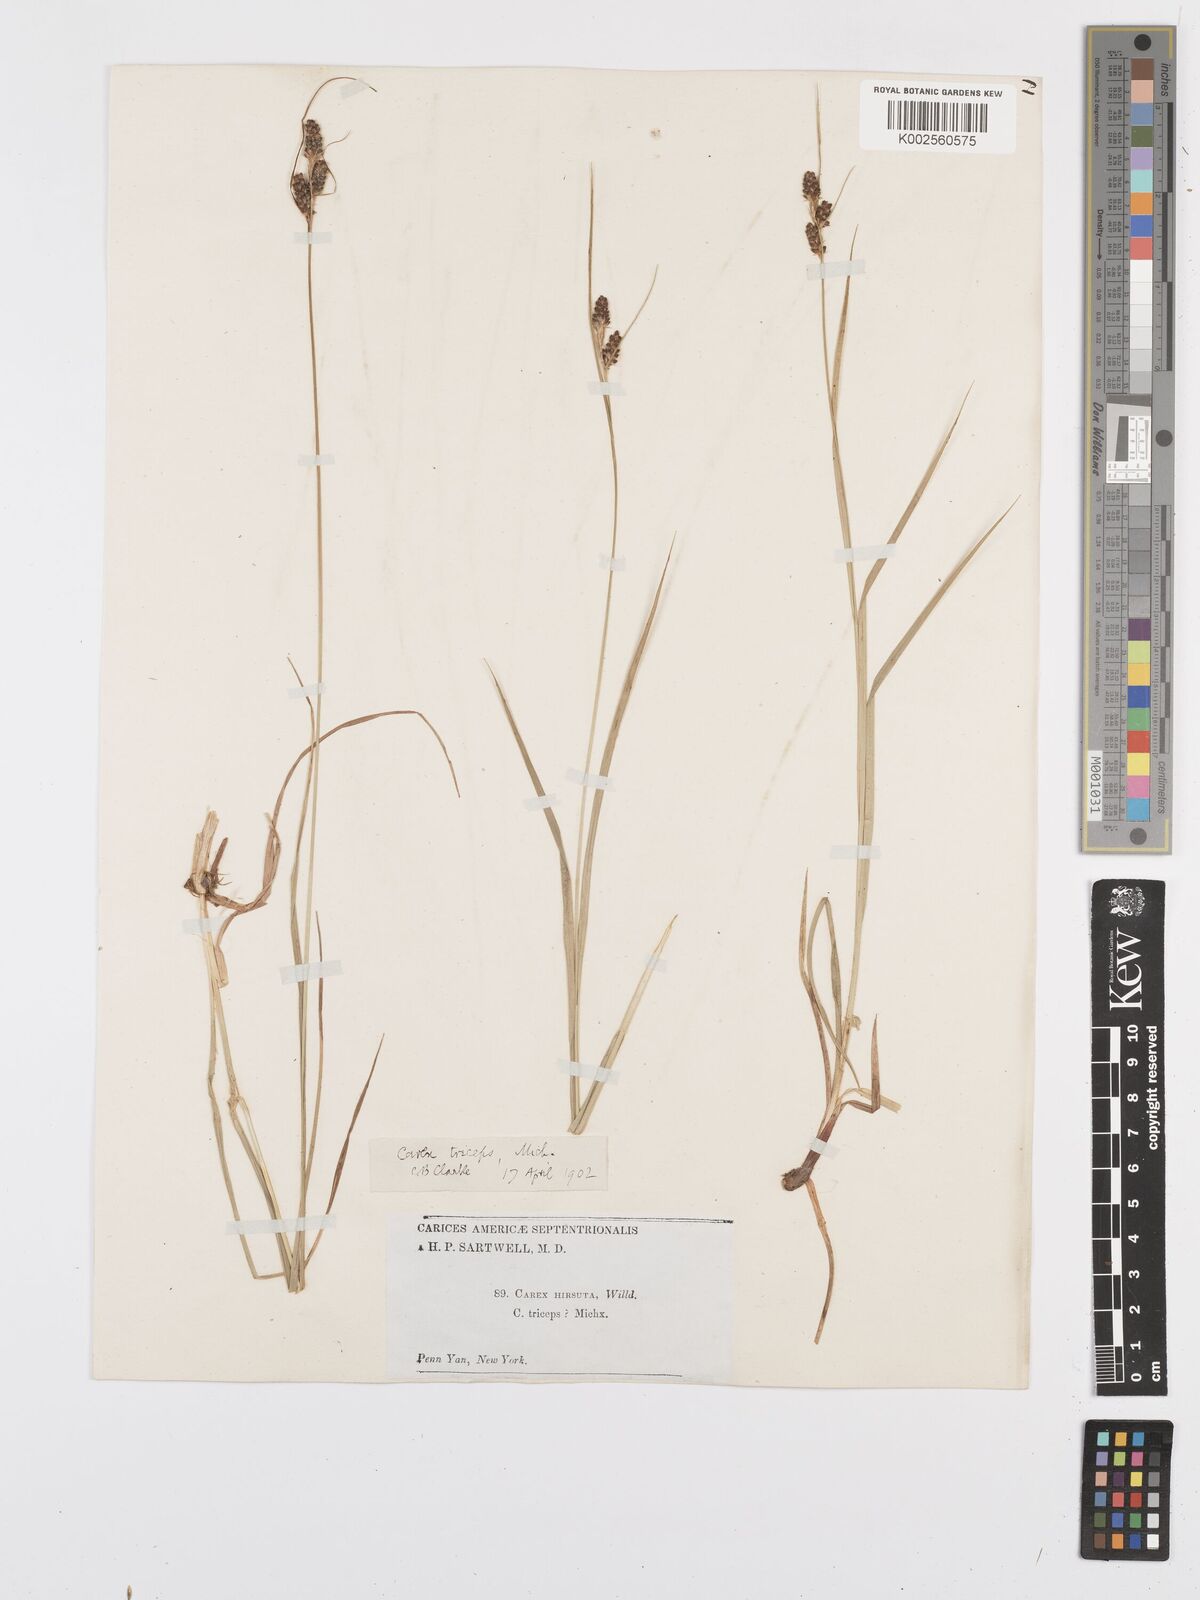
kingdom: Plantae
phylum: Tracheophyta
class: Liliopsida
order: Poales
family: Cyperaceae
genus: Carex
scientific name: Carex complanata
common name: Hirsute sedge
